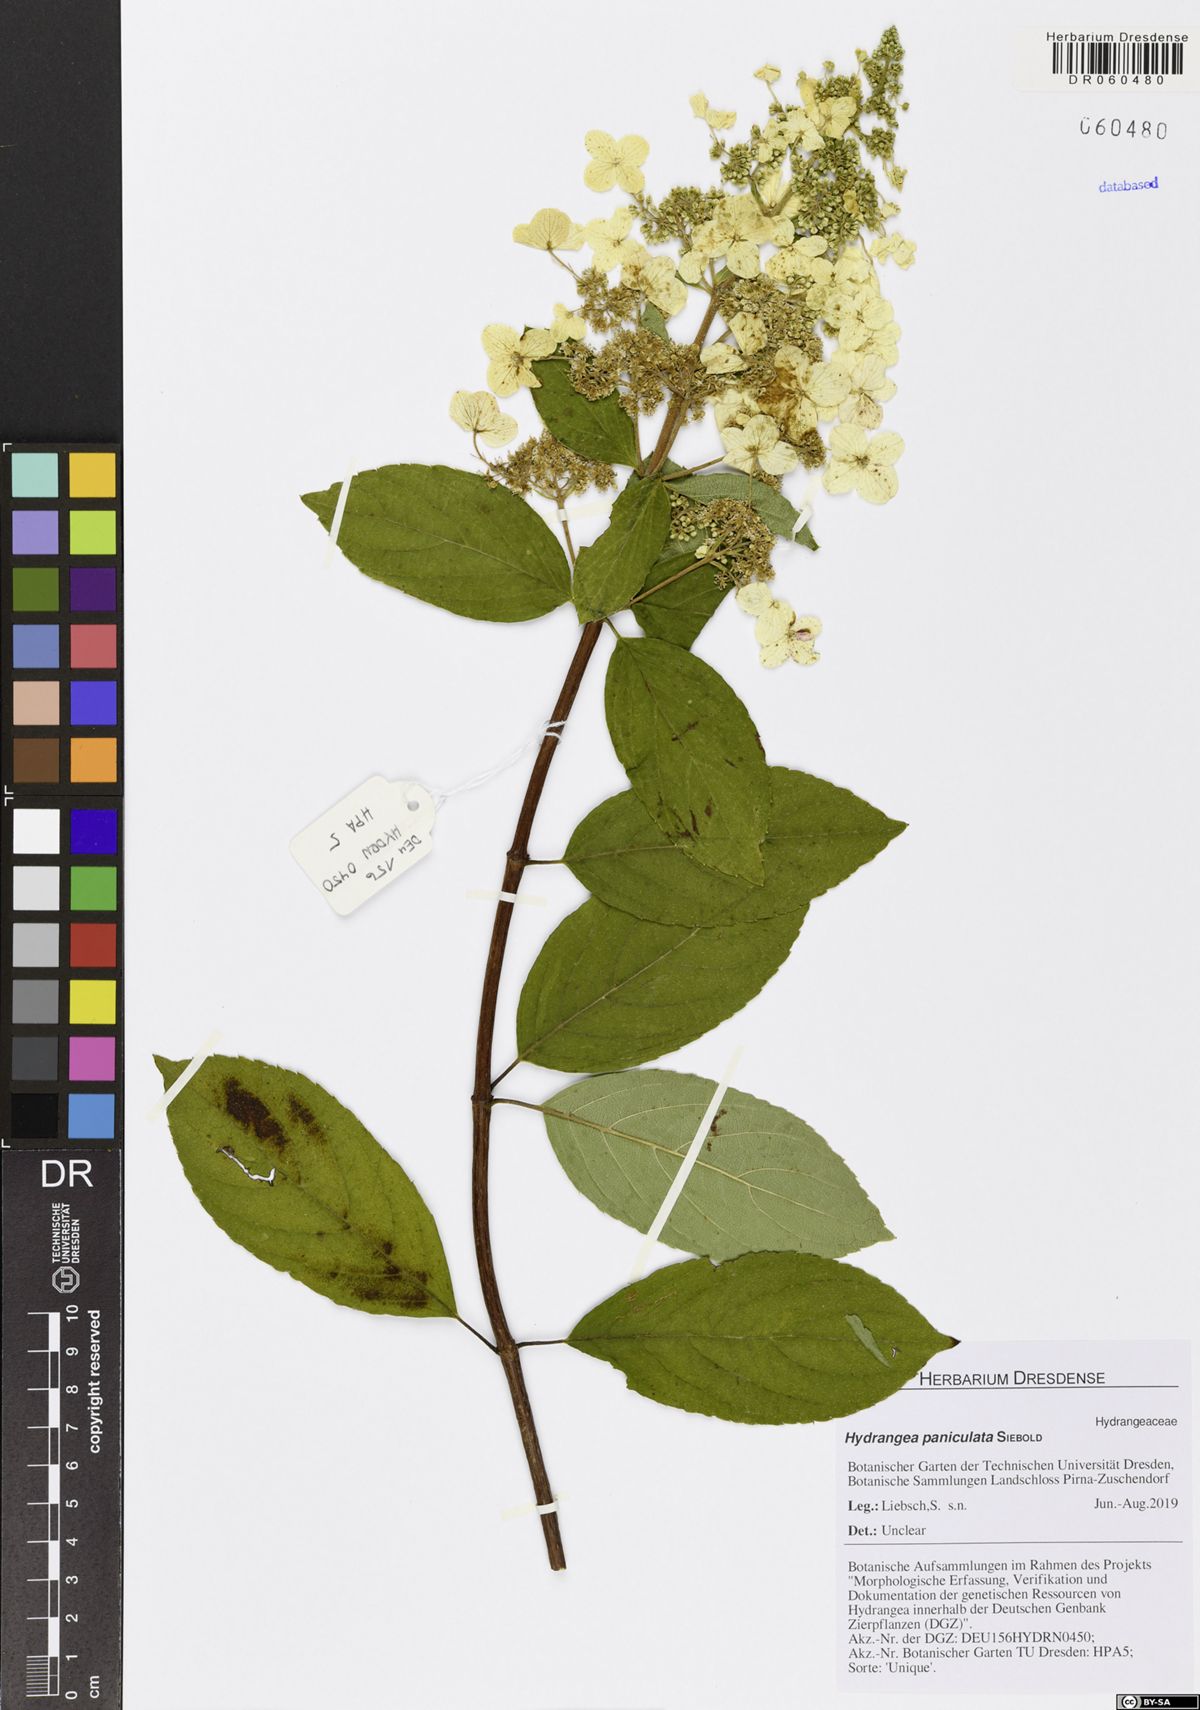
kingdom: Plantae
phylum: Tracheophyta
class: Magnoliopsida
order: Cornales
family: Hydrangeaceae
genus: Hydrangea
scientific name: Hydrangea paniculata
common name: Panicled hydrangea
